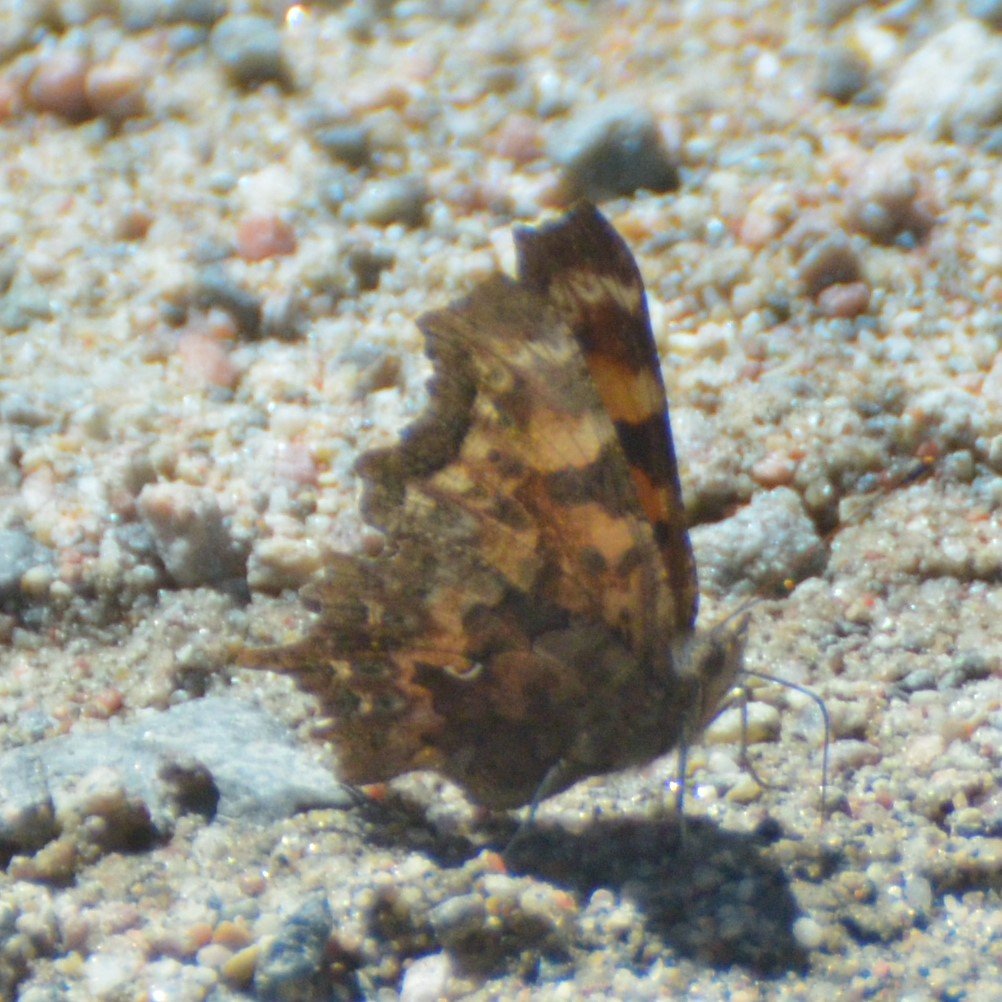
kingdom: Animalia
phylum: Arthropoda
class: Insecta
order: Lepidoptera
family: Nymphalidae
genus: Polygonia
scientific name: Polygonia faunus
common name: Green Comma
